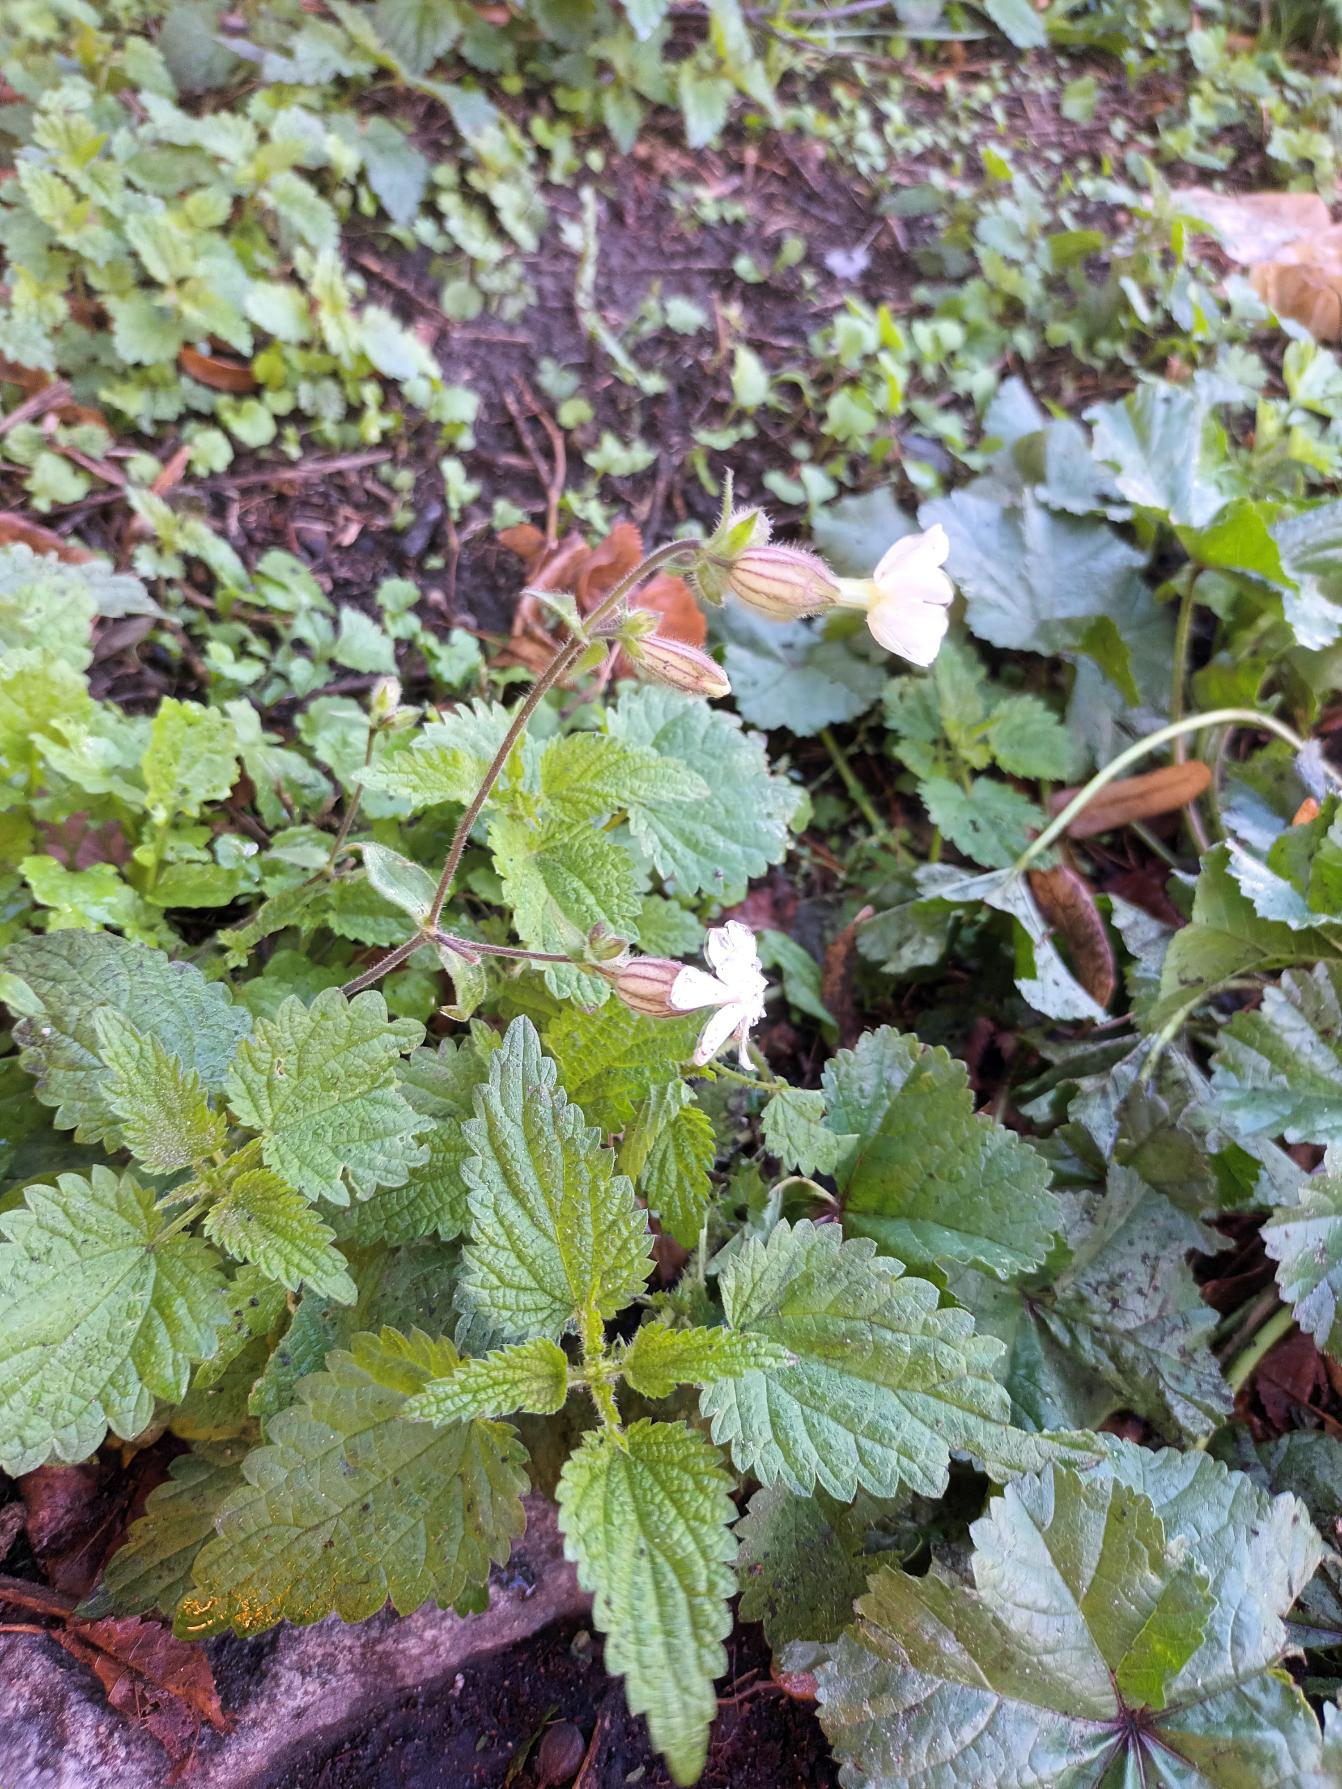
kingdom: Plantae
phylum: Tracheophyta
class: Magnoliopsida
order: Caryophyllales
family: Caryophyllaceae
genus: Silene
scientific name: Silene latifolia
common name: Aftenpragtstjerne
